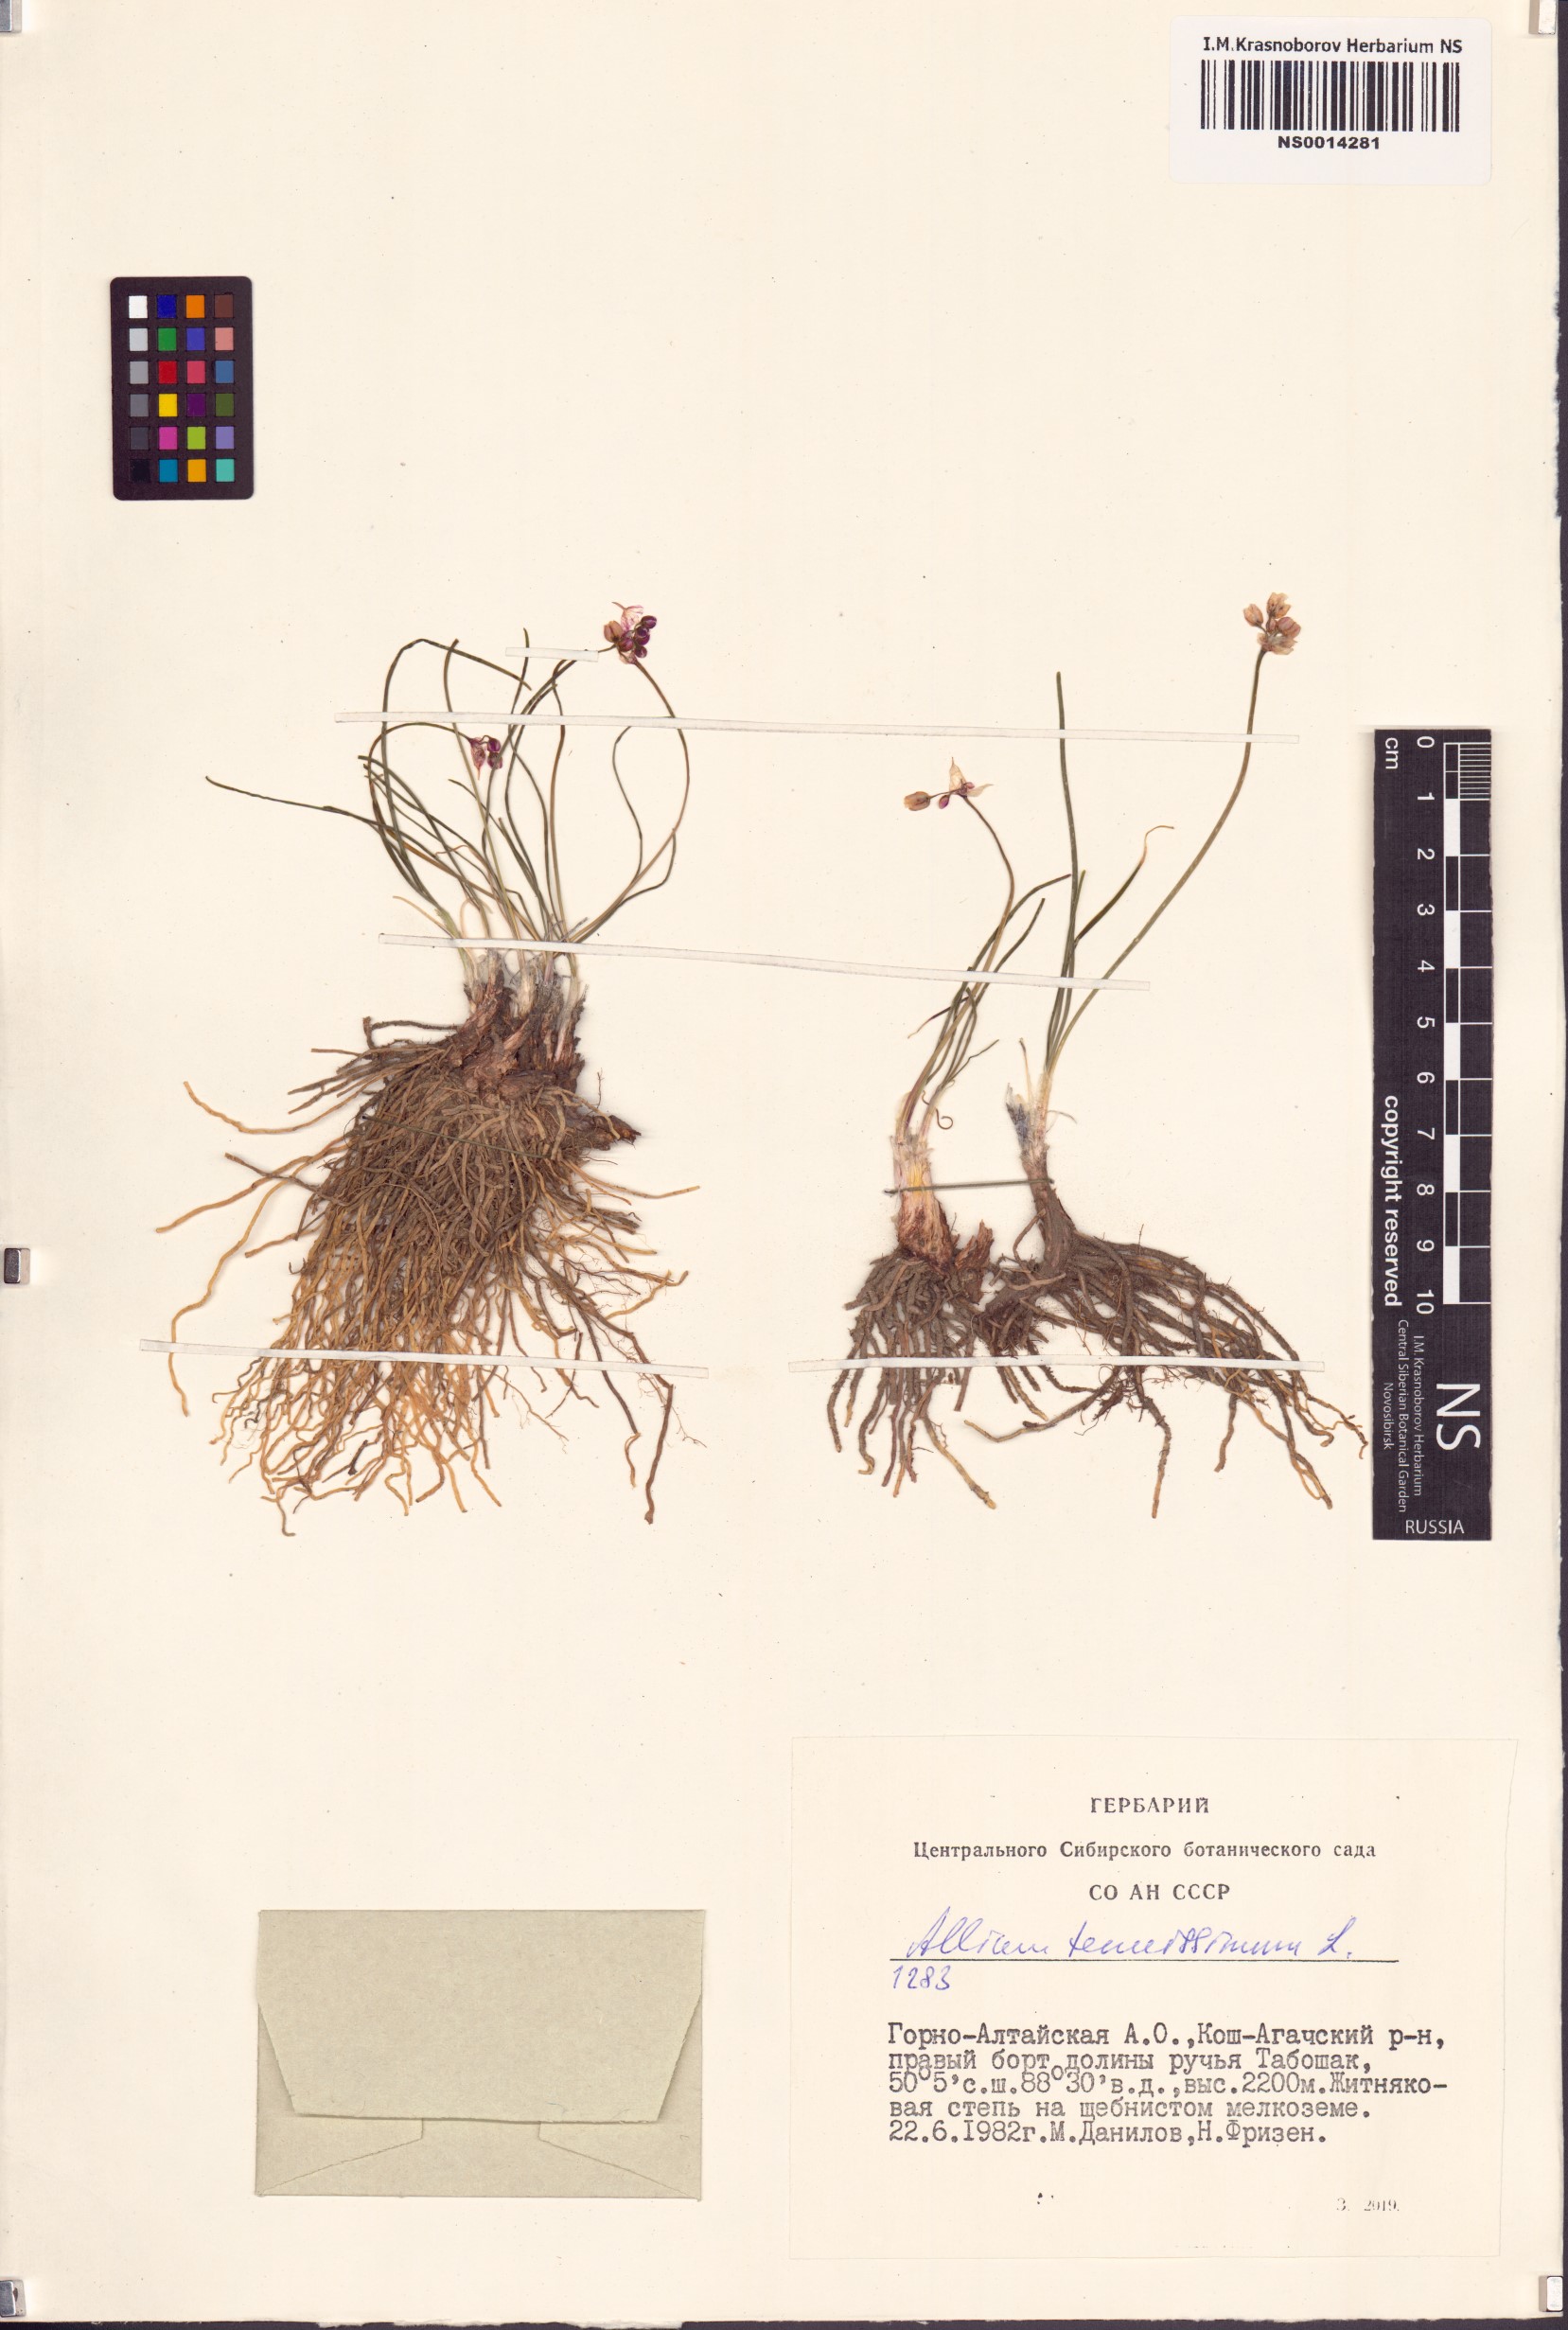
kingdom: Plantae
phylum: Tracheophyta
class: Liliopsida
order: Asparagales
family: Amaryllidaceae
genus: Allium
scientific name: Allium tenuissimum
